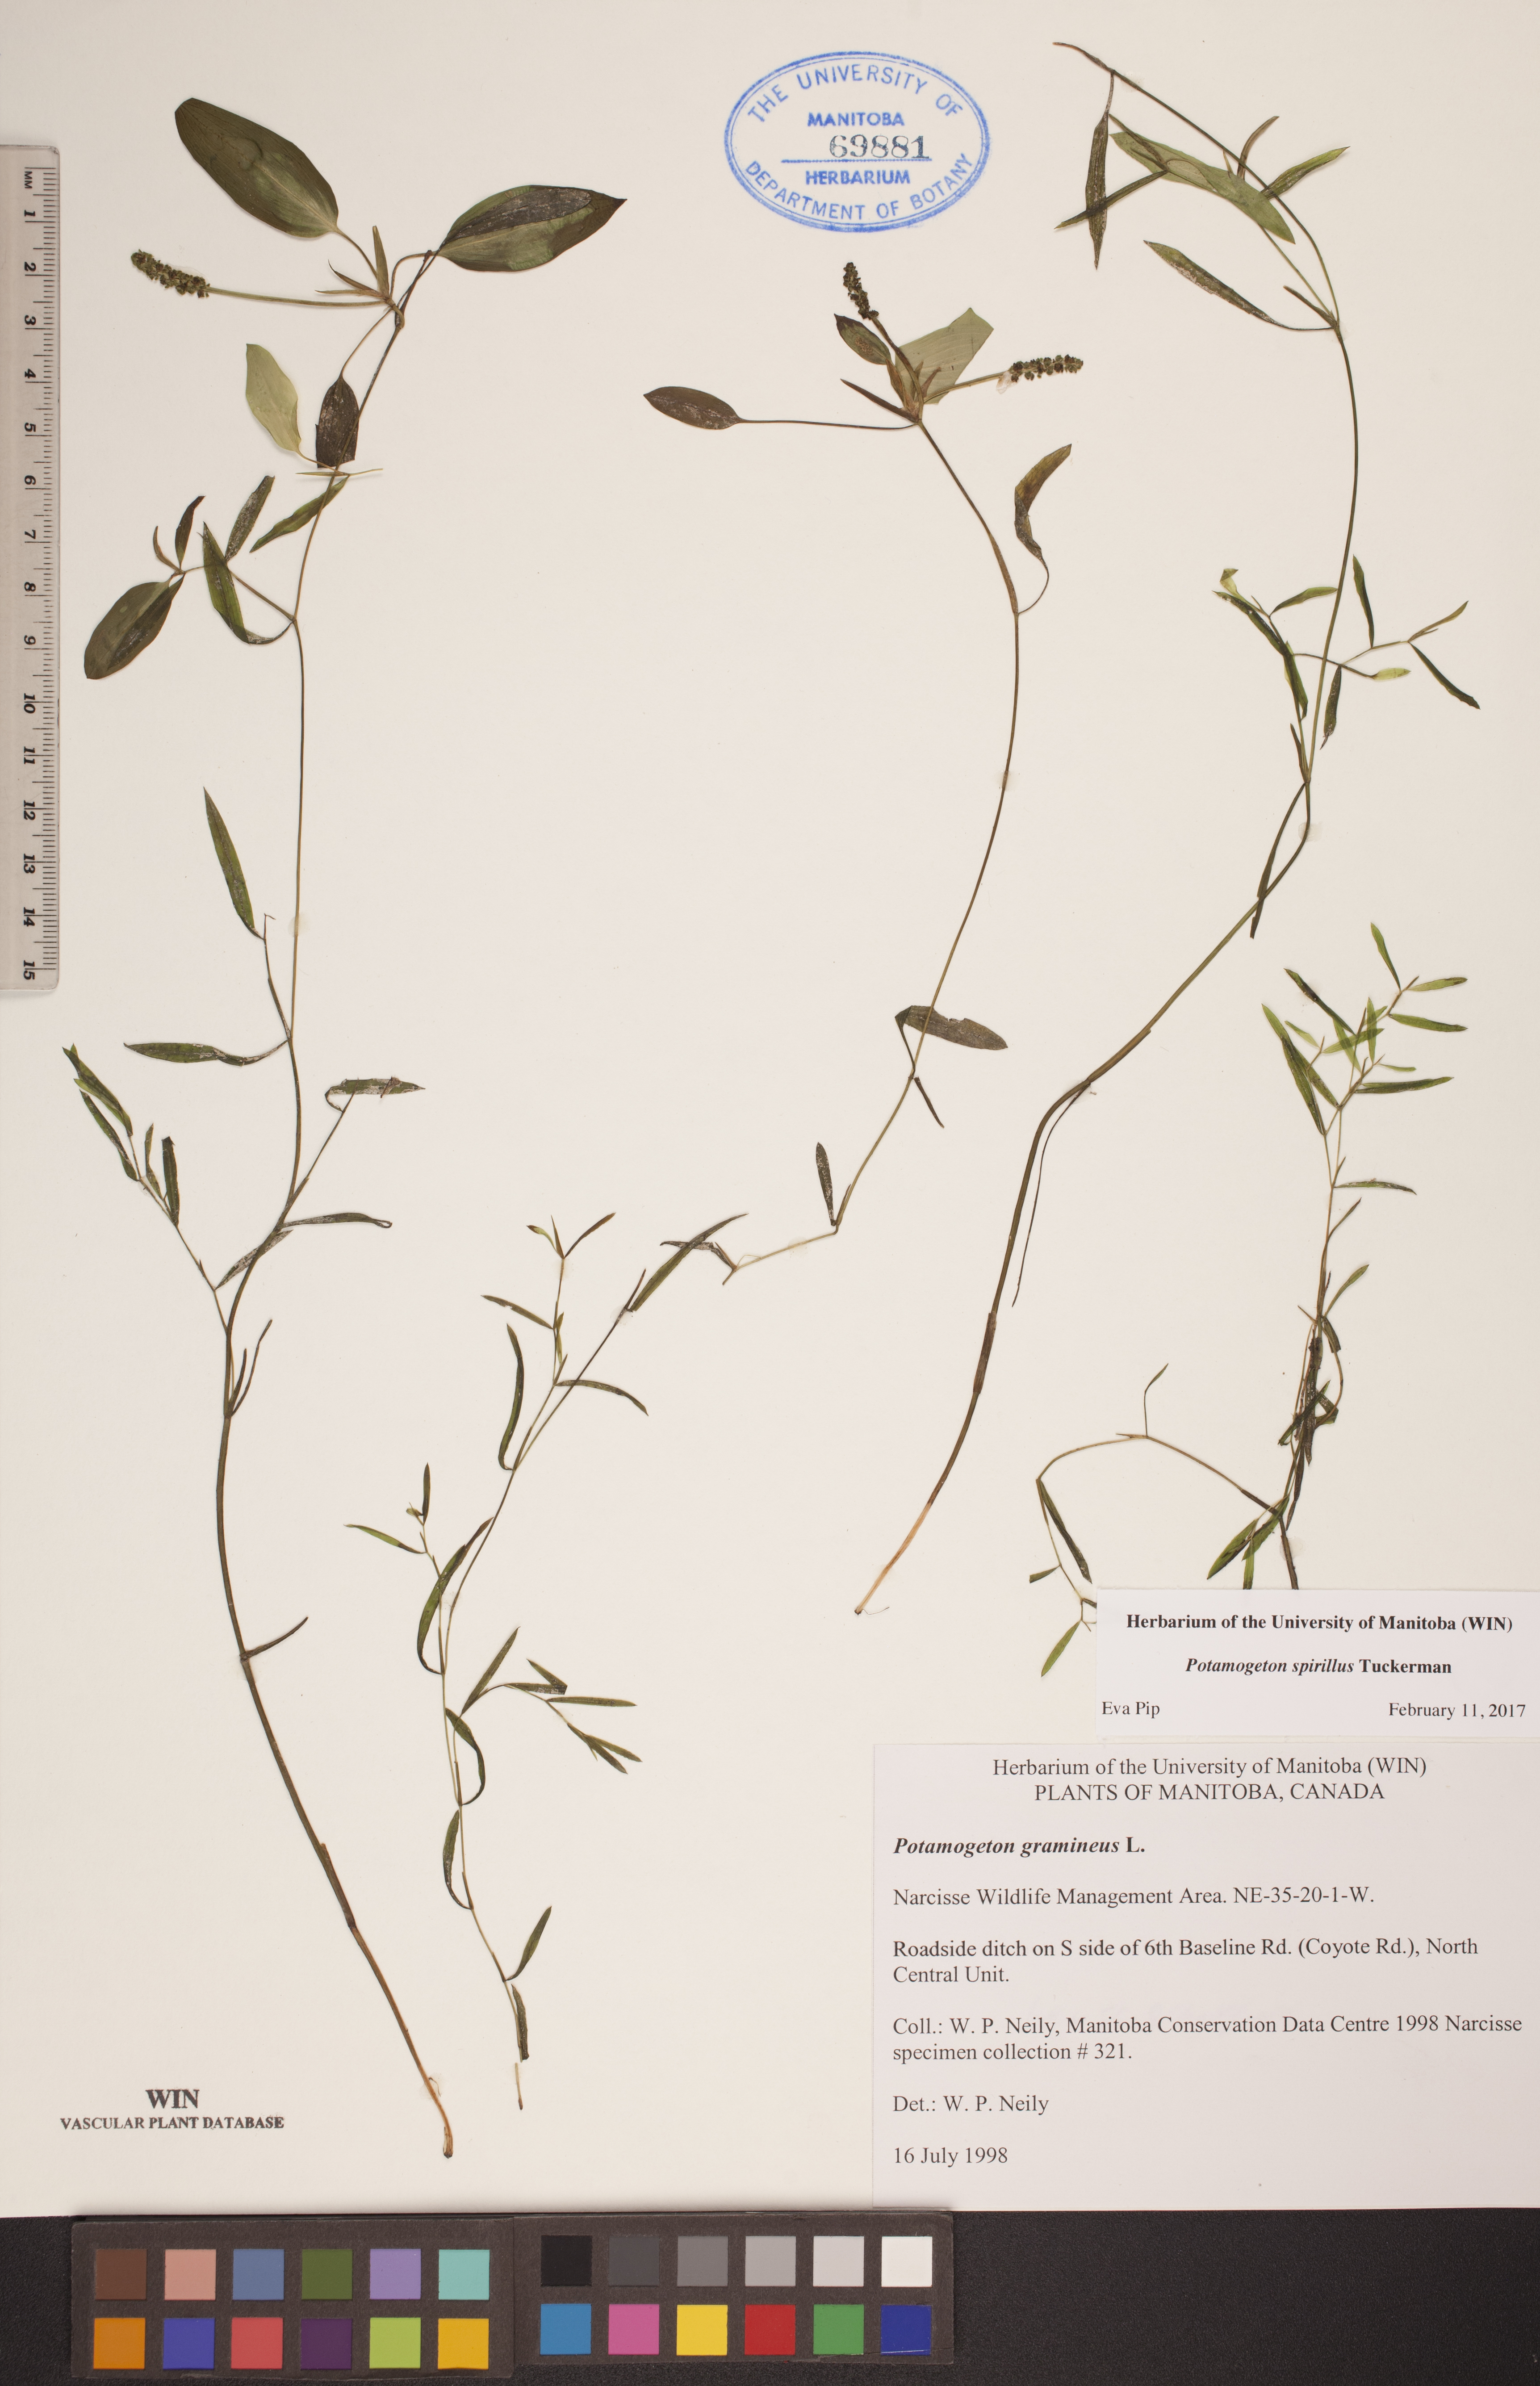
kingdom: Plantae
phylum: Tracheophyta
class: Liliopsida
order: Alismatales
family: Potamogetonaceae
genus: Potamogeton
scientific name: Potamogeton spirillus
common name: Northern snail-seed pondweed
